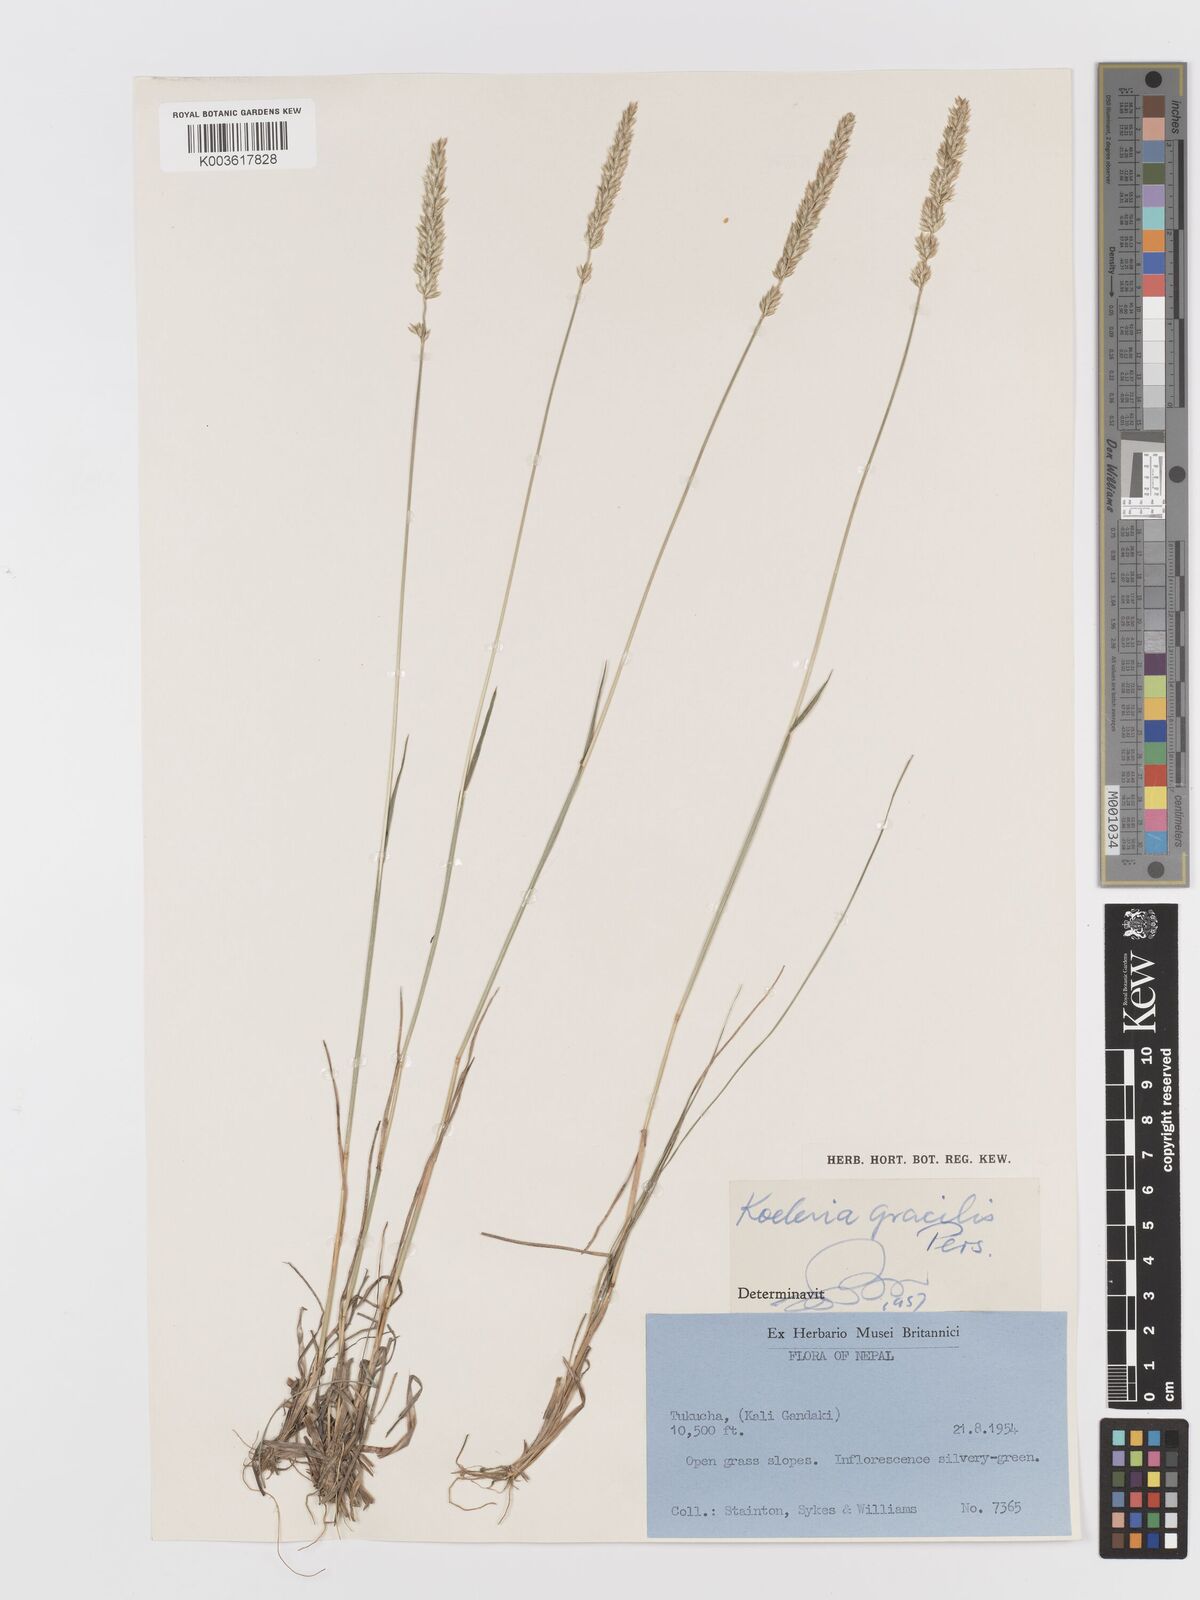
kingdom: Plantae
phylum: Tracheophyta
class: Liliopsida
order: Poales
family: Poaceae
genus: Koeleria
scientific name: Koeleria macrantha
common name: Crested hair-grass
